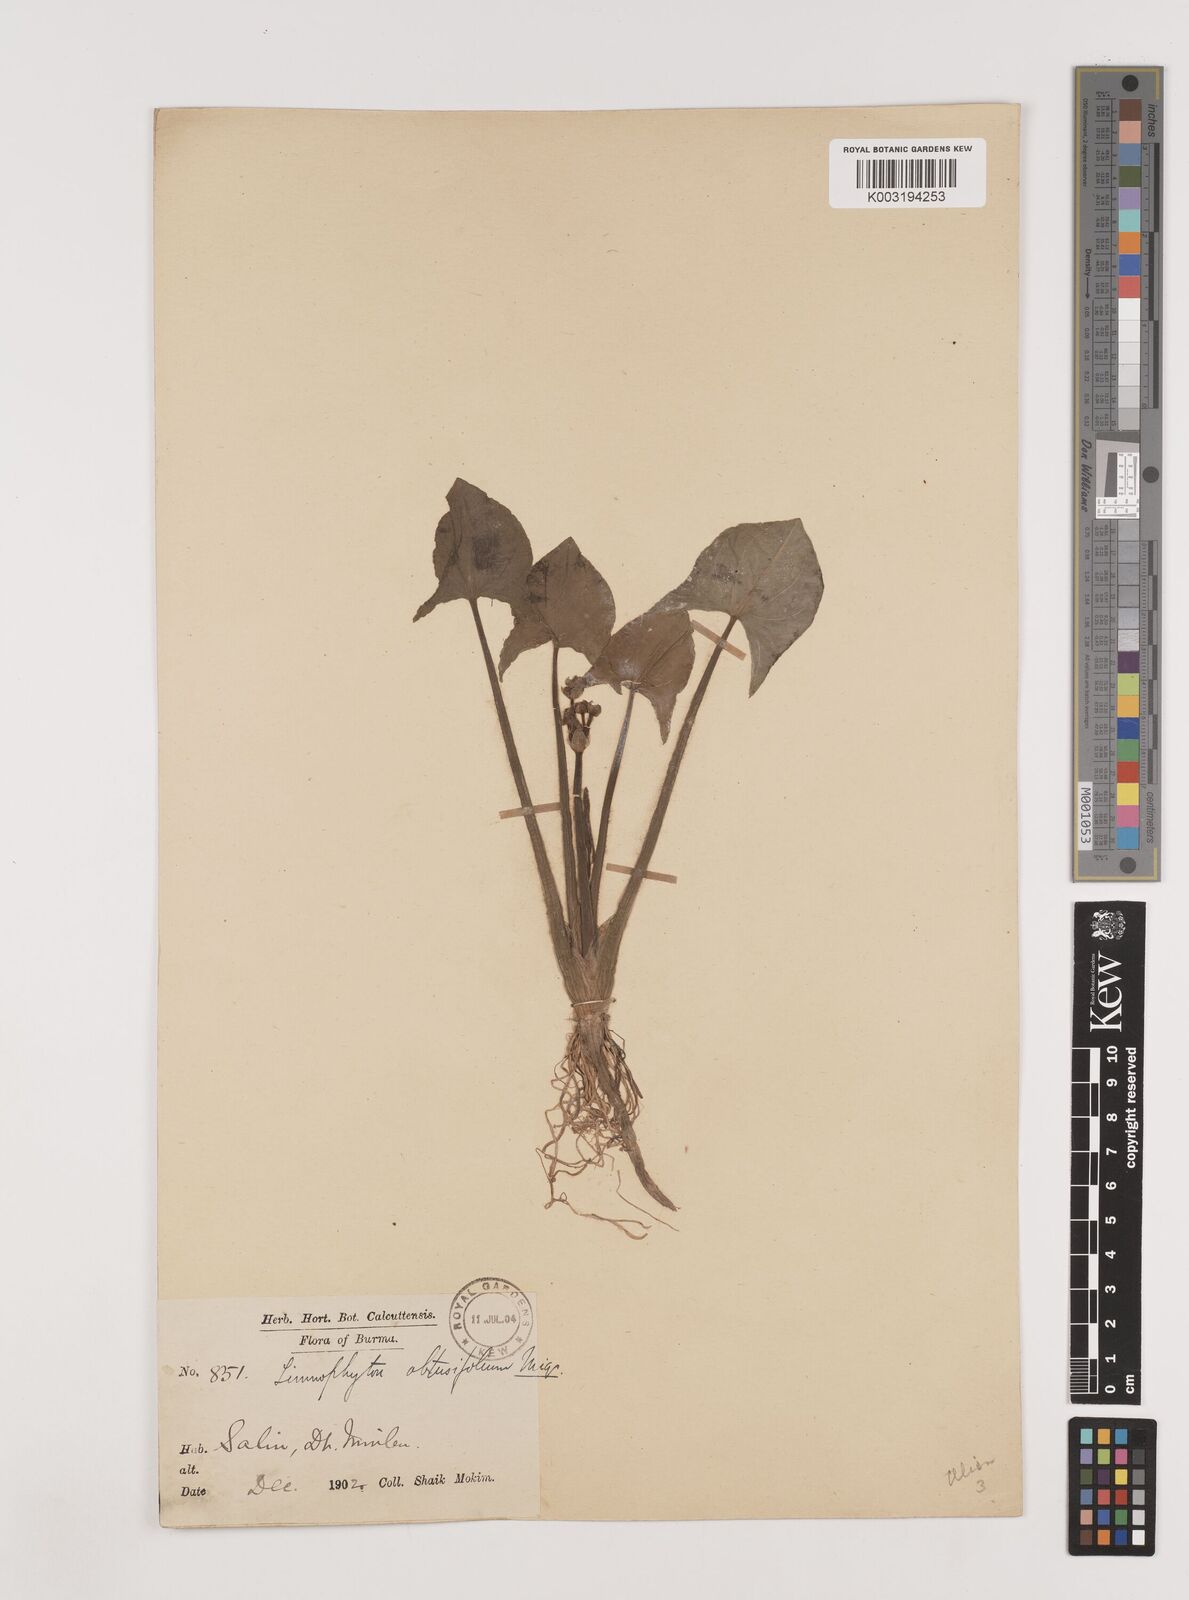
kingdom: Plantae
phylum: Tracheophyta
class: Liliopsida
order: Alismatales
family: Alismataceae
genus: Limnophyton
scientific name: Limnophyton obtusifolium
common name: Arrow head
